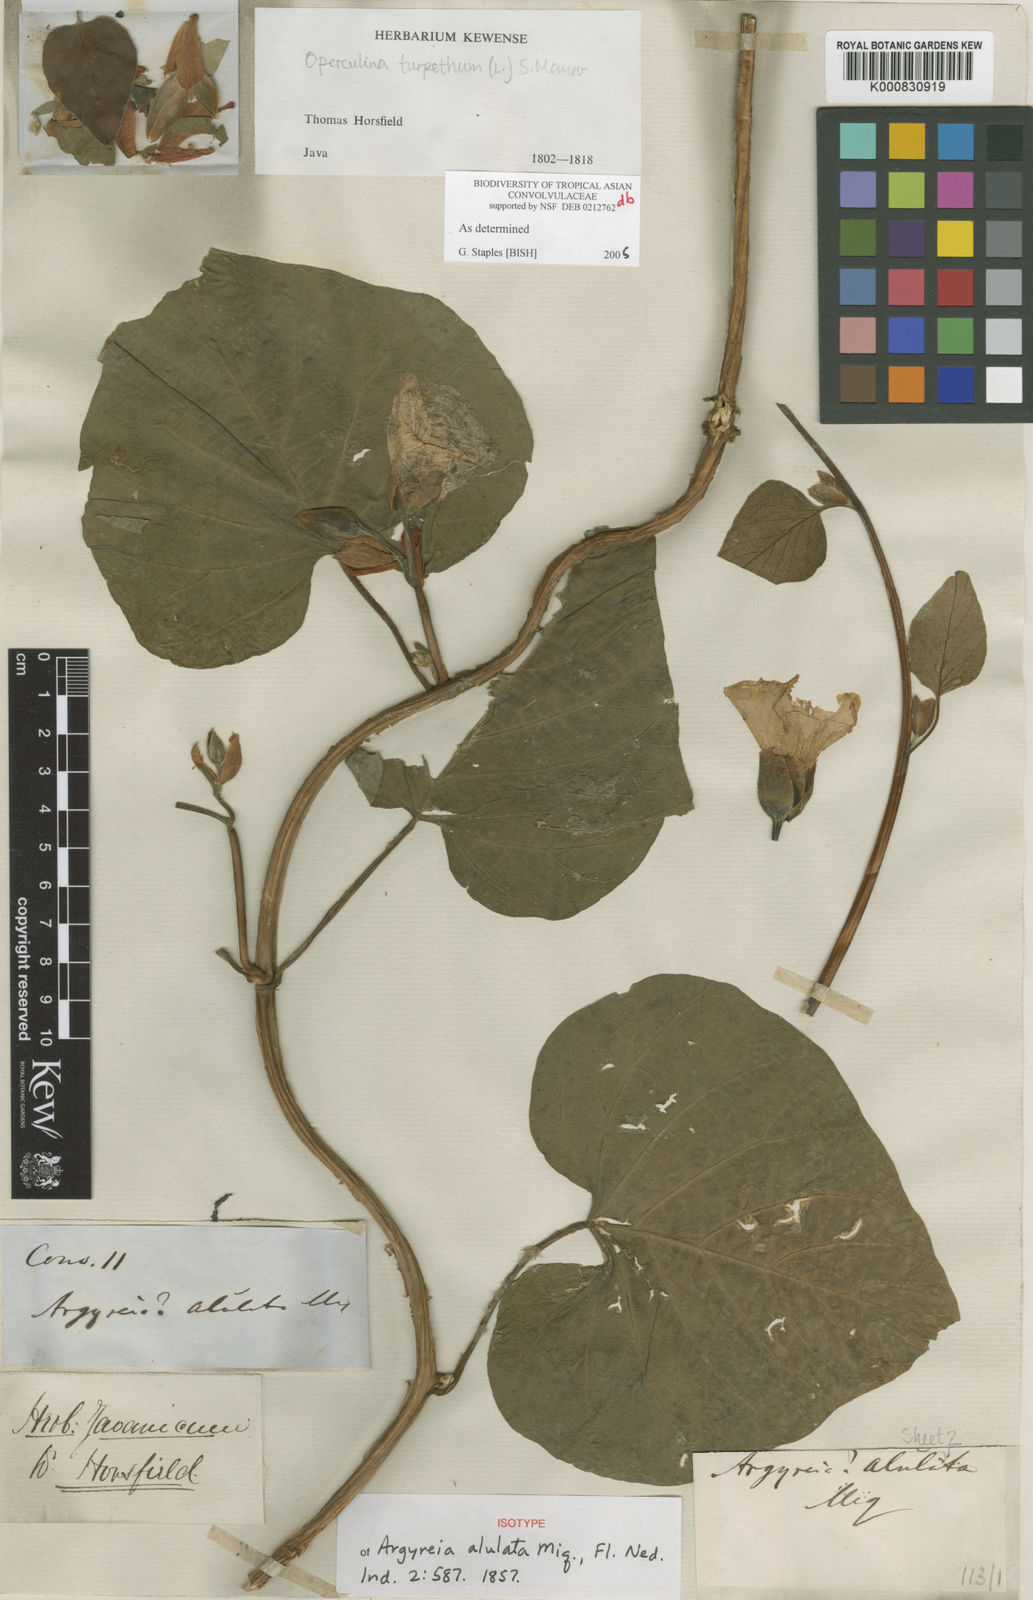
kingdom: Plantae
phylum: Tracheophyta
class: Magnoliopsida
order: Solanales
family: Convolvulaceae
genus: Operculina
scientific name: Operculina turpethum
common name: Transparent wood-rose
